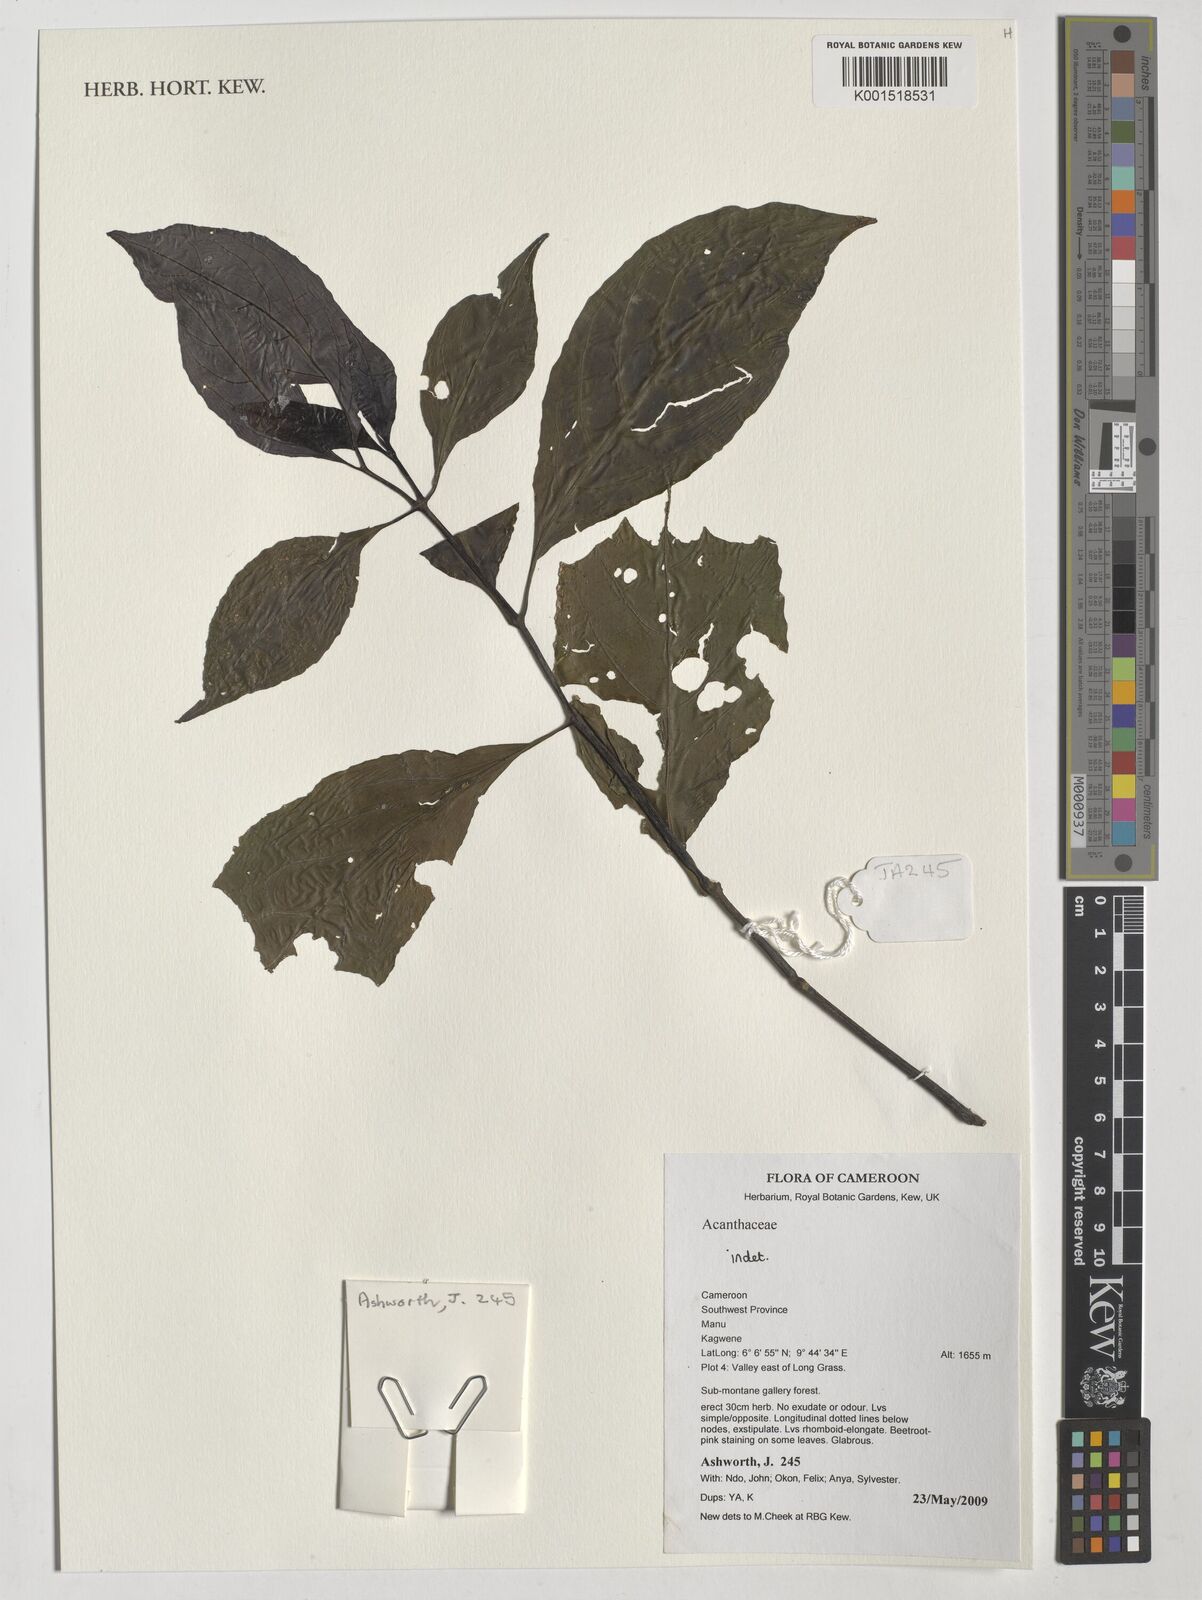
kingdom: Plantae
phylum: Tracheophyta
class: Magnoliopsida
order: Lamiales
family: Acanthaceae
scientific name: Acanthaceae
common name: Acanthaceae
